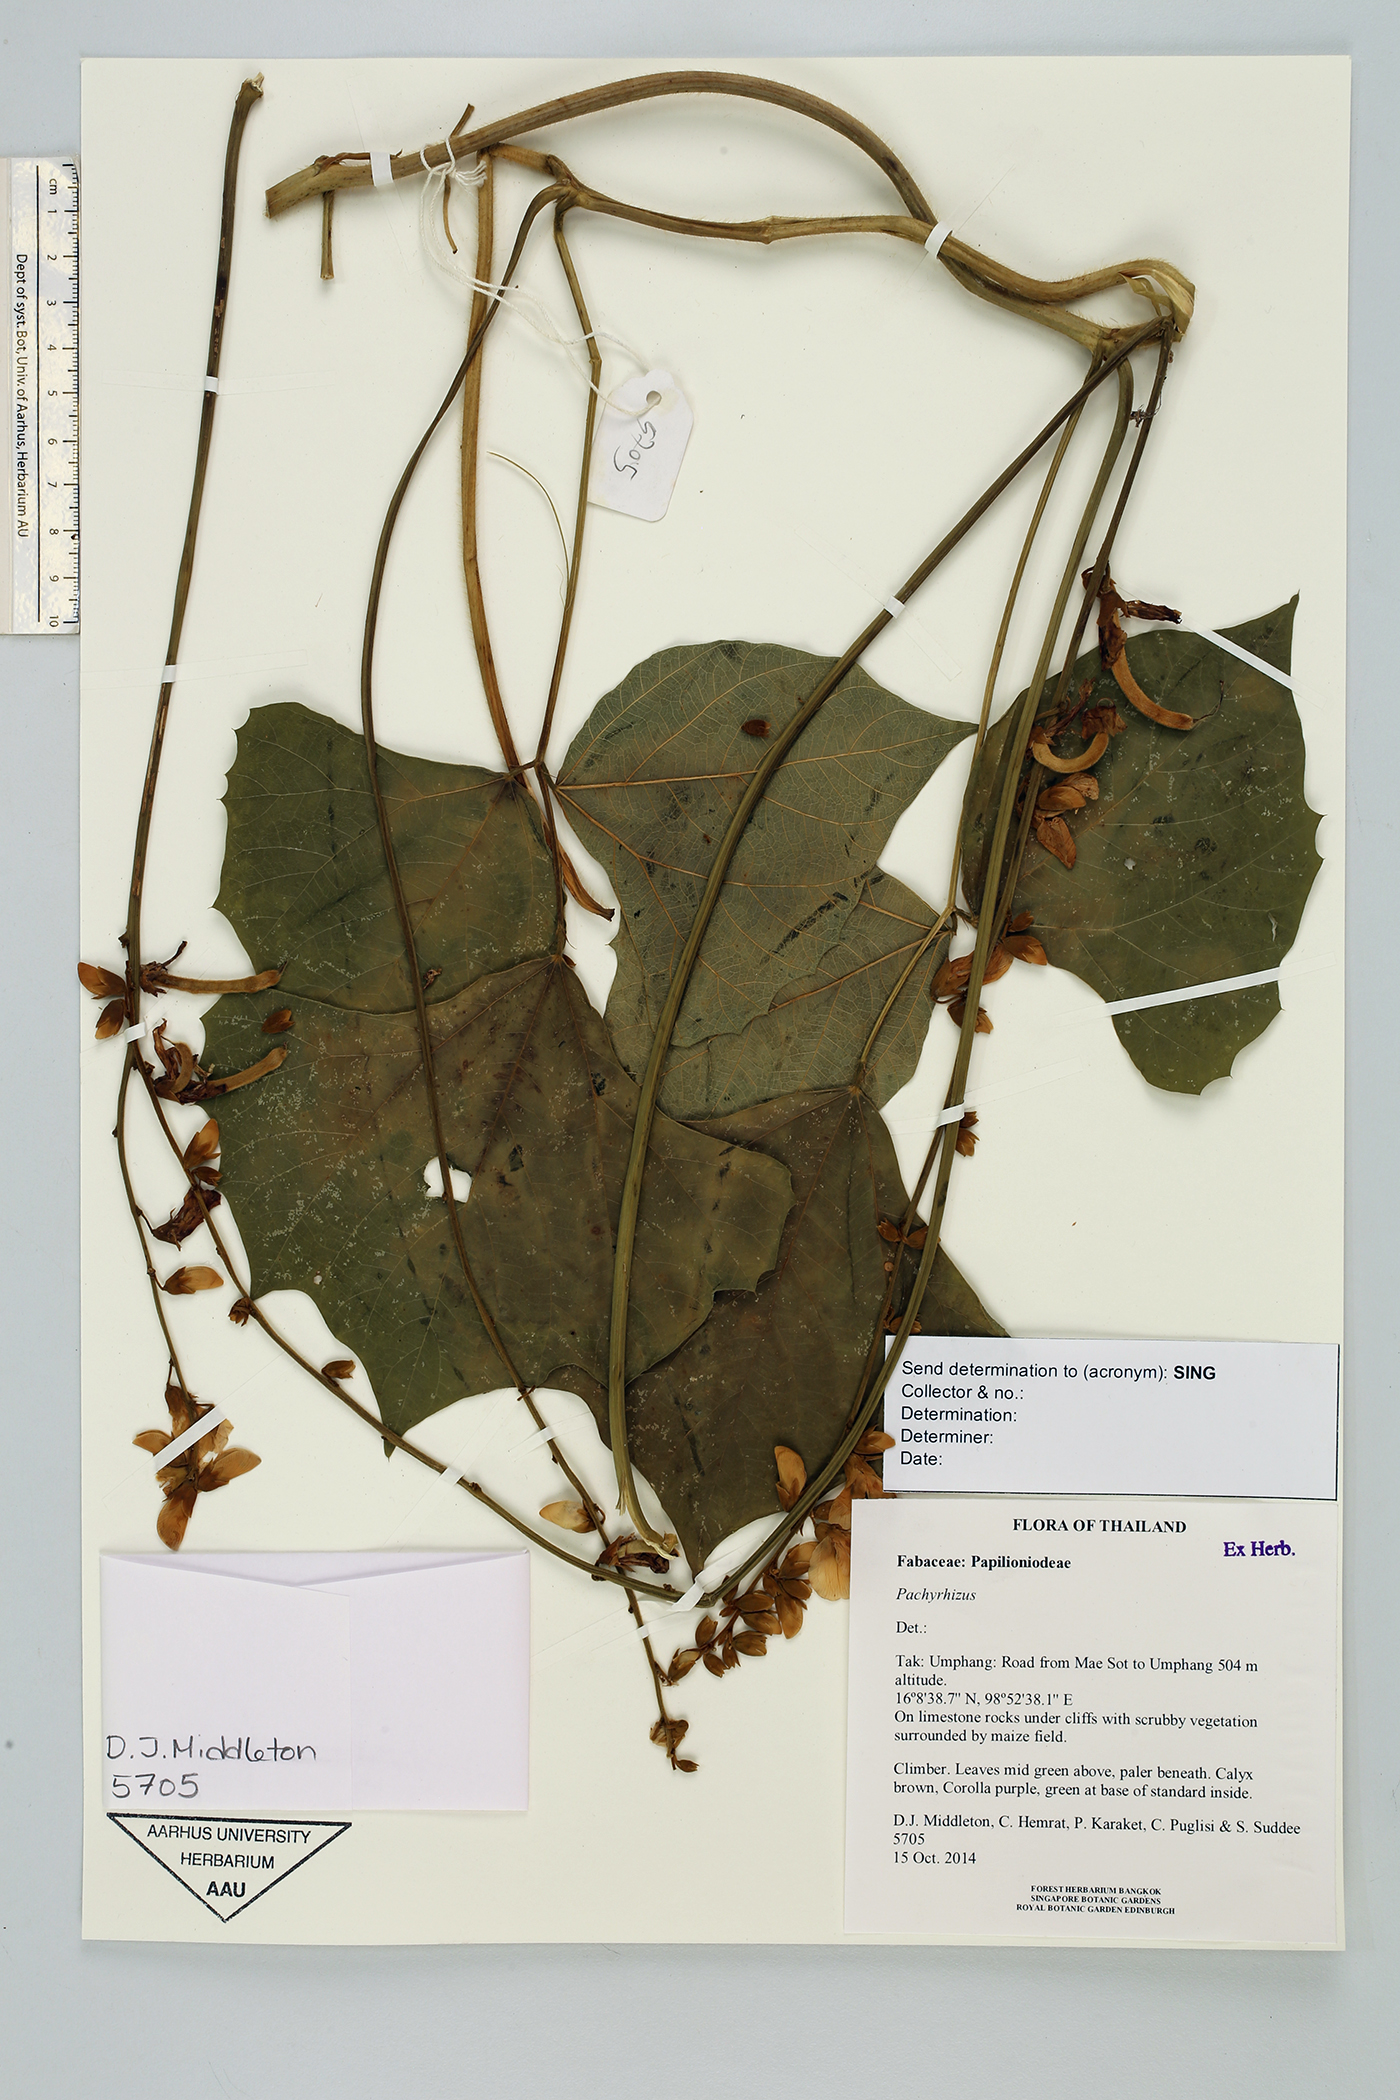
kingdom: Plantae
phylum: Tracheophyta
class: Magnoliopsida
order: Fabales
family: Fabaceae
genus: Pachyrhizus
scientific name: Pachyrhizus
